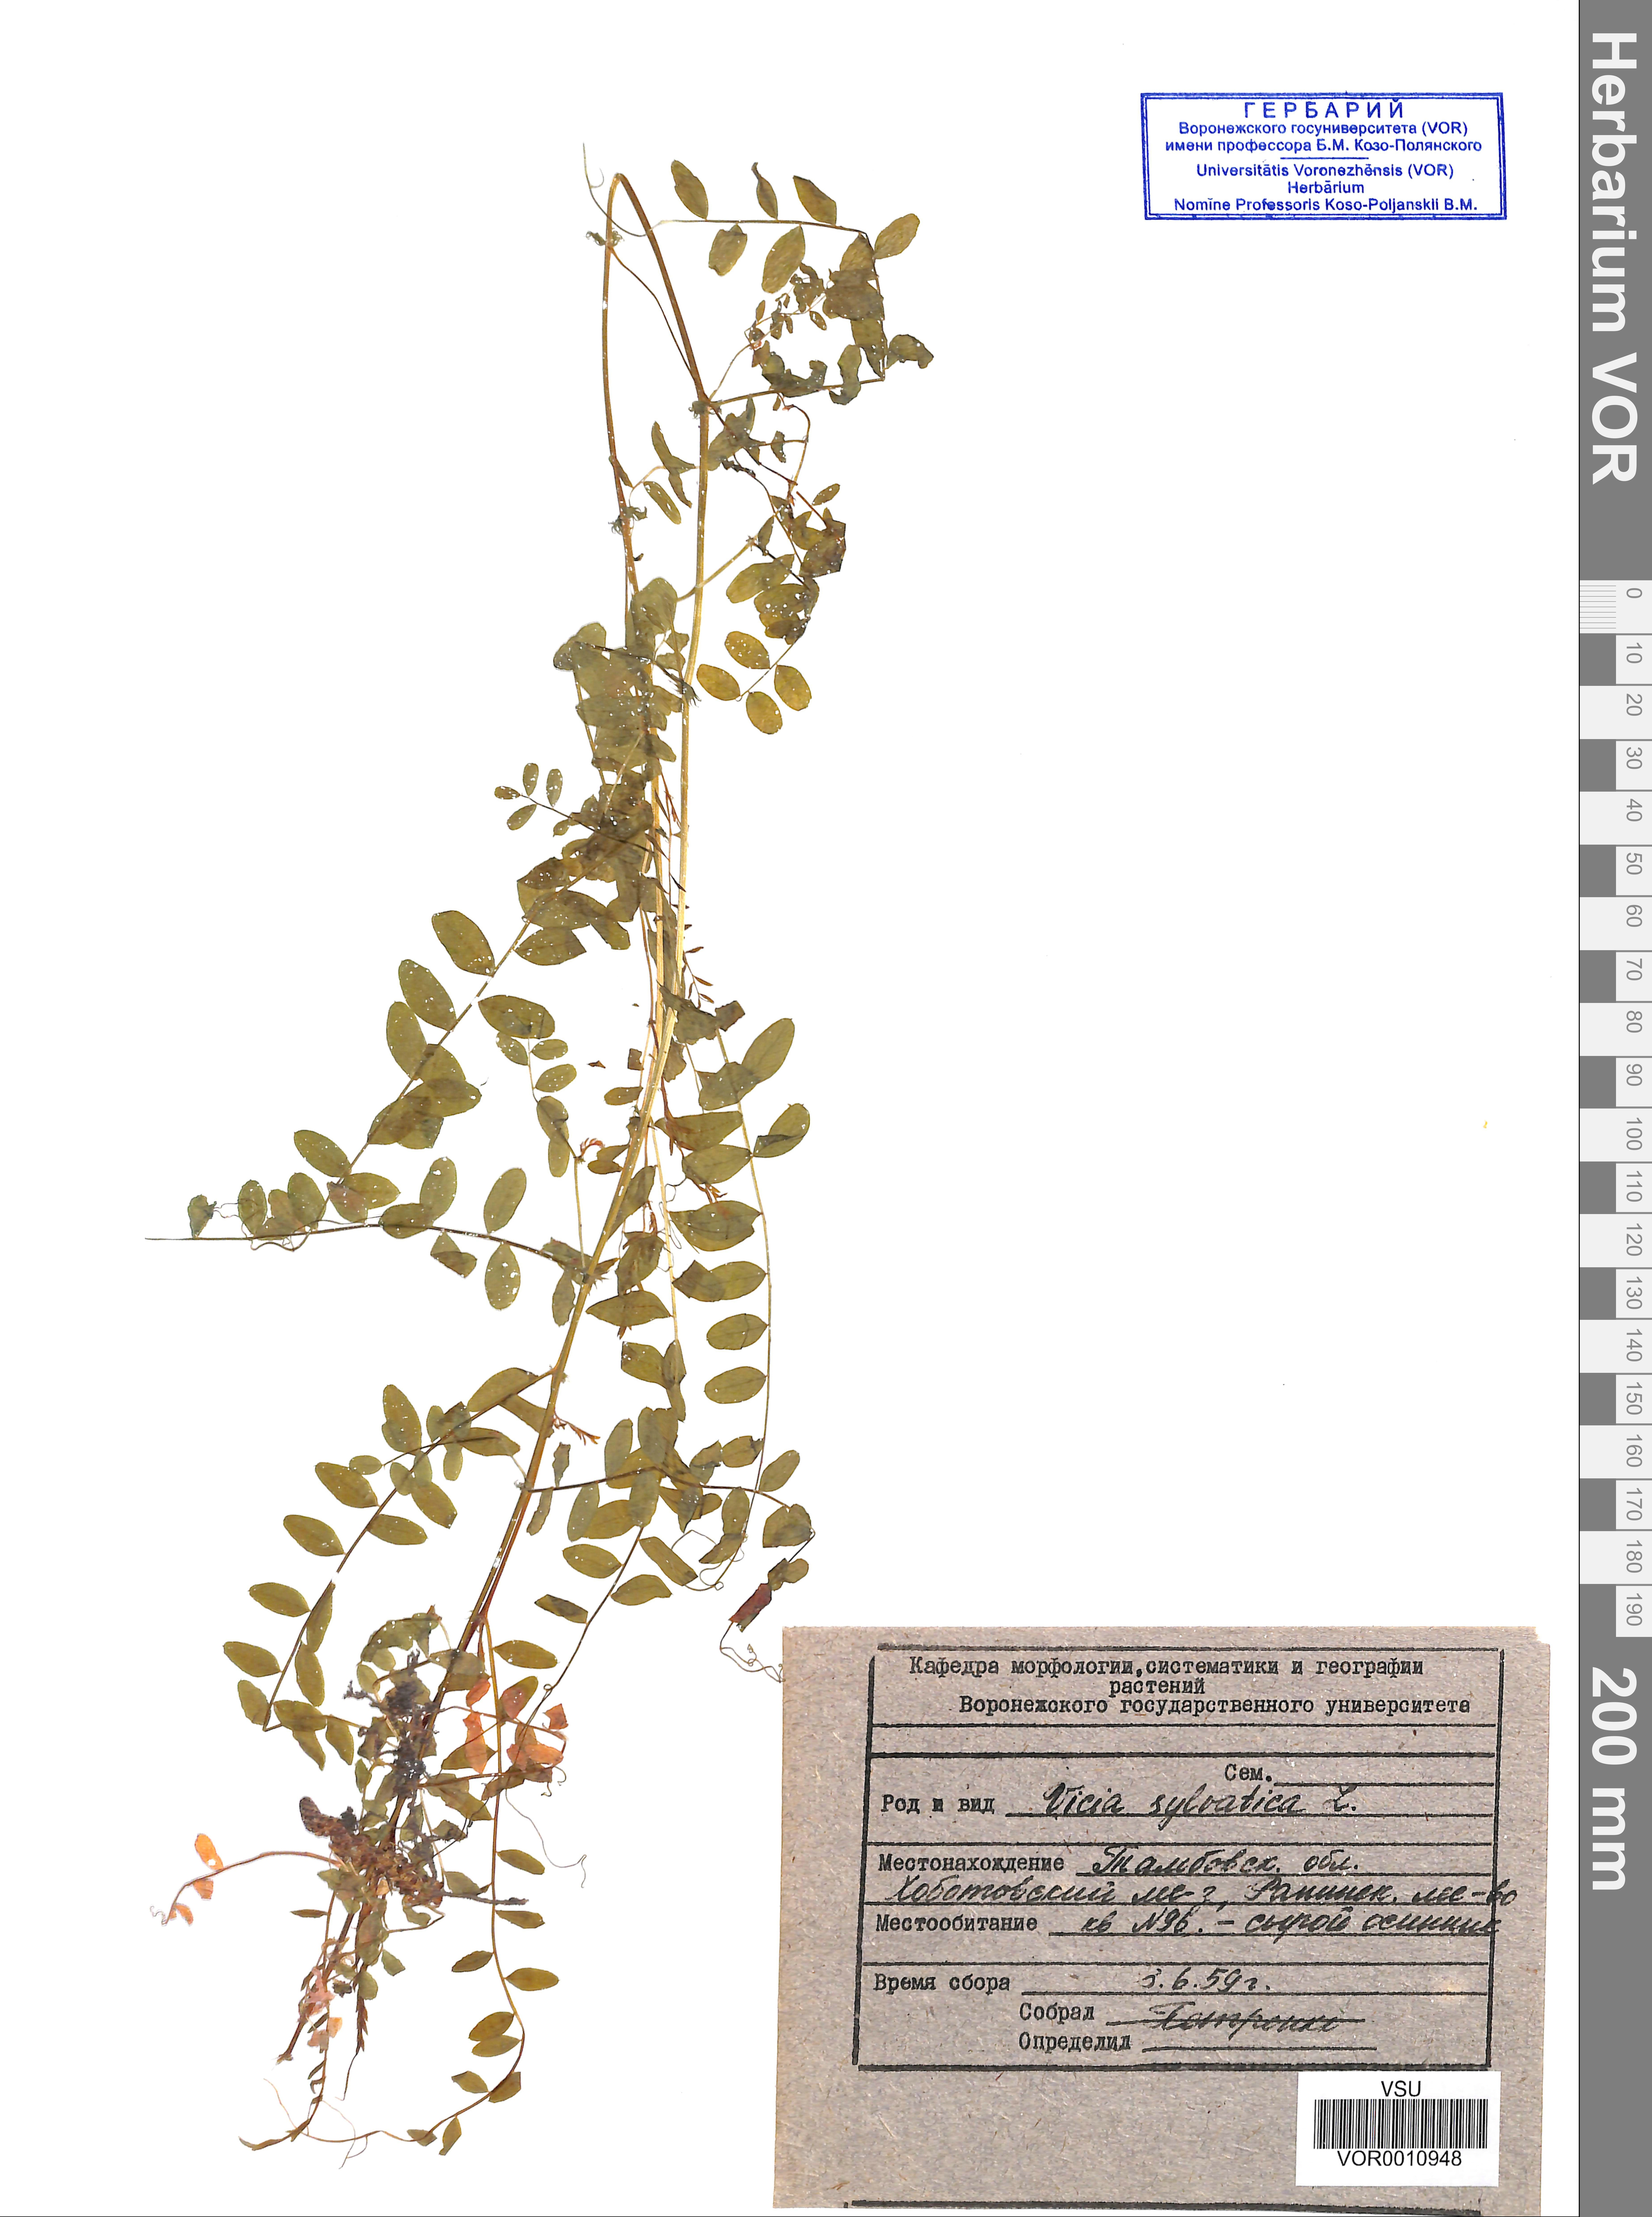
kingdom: Plantae
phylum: Tracheophyta
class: Magnoliopsida
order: Fabales
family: Fabaceae
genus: Vicia
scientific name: Vicia sylvatica
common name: Wood vetch
